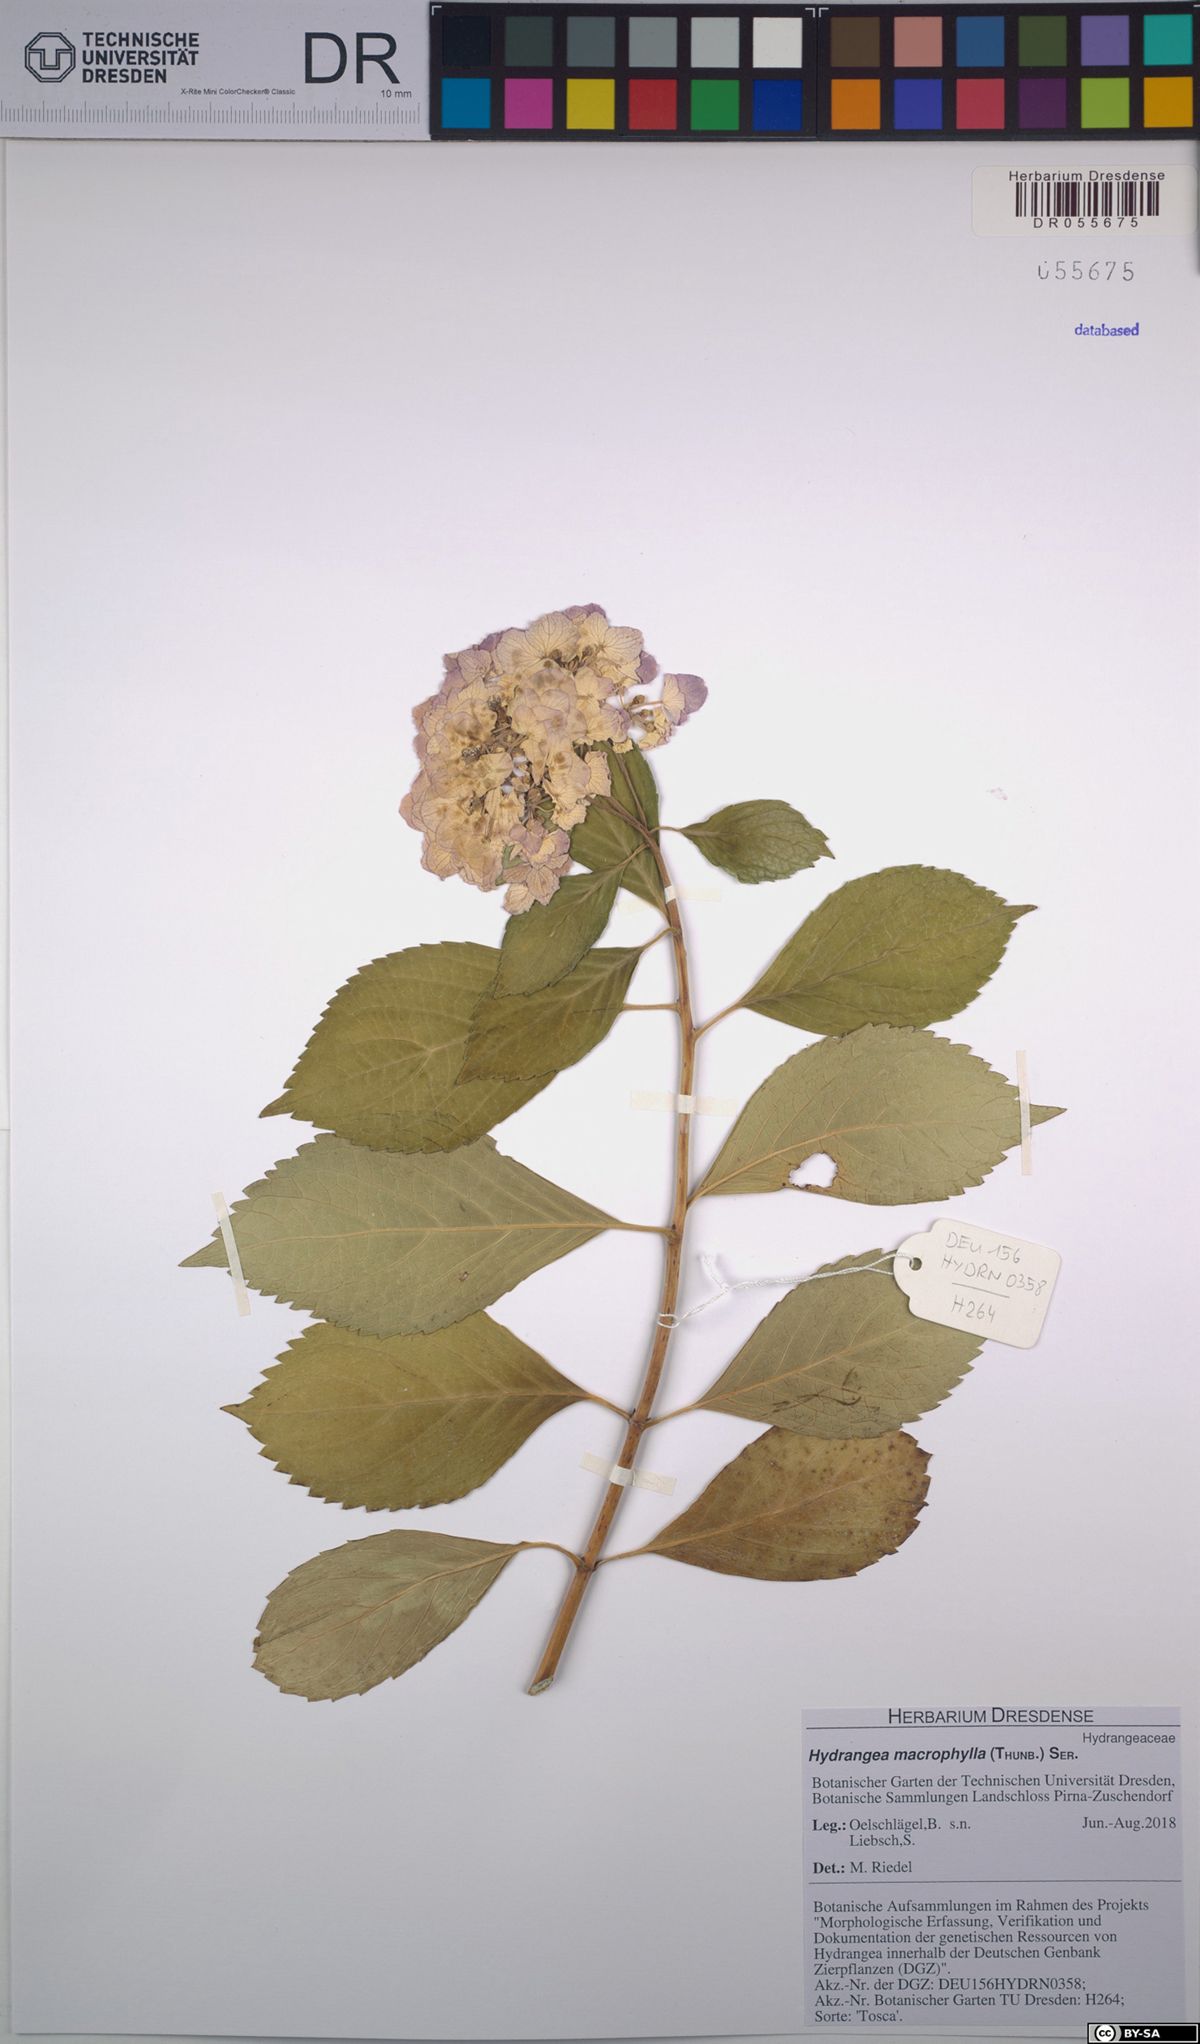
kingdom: Plantae
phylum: Tracheophyta
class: Magnoliopsida
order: Cornales
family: Hydrangeaceae
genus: Hydrangea
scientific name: Hydrangea macrophylla
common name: Hydrangea
